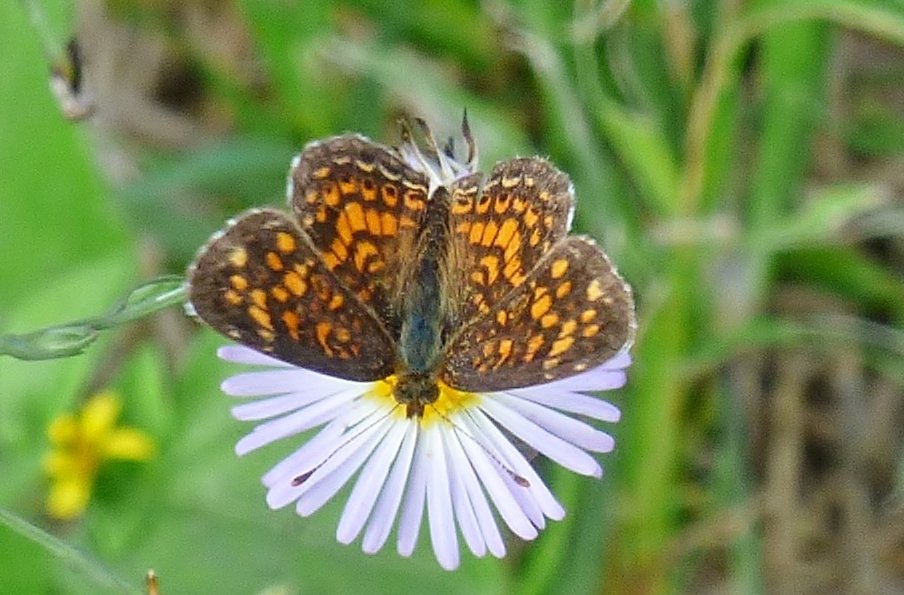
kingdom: Animalia
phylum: Arthropoda
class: Insecta
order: Lepidoptera
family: Nymphalidae
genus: Phyciodes
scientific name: Phyciodes vesta
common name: Vesta Crescent
